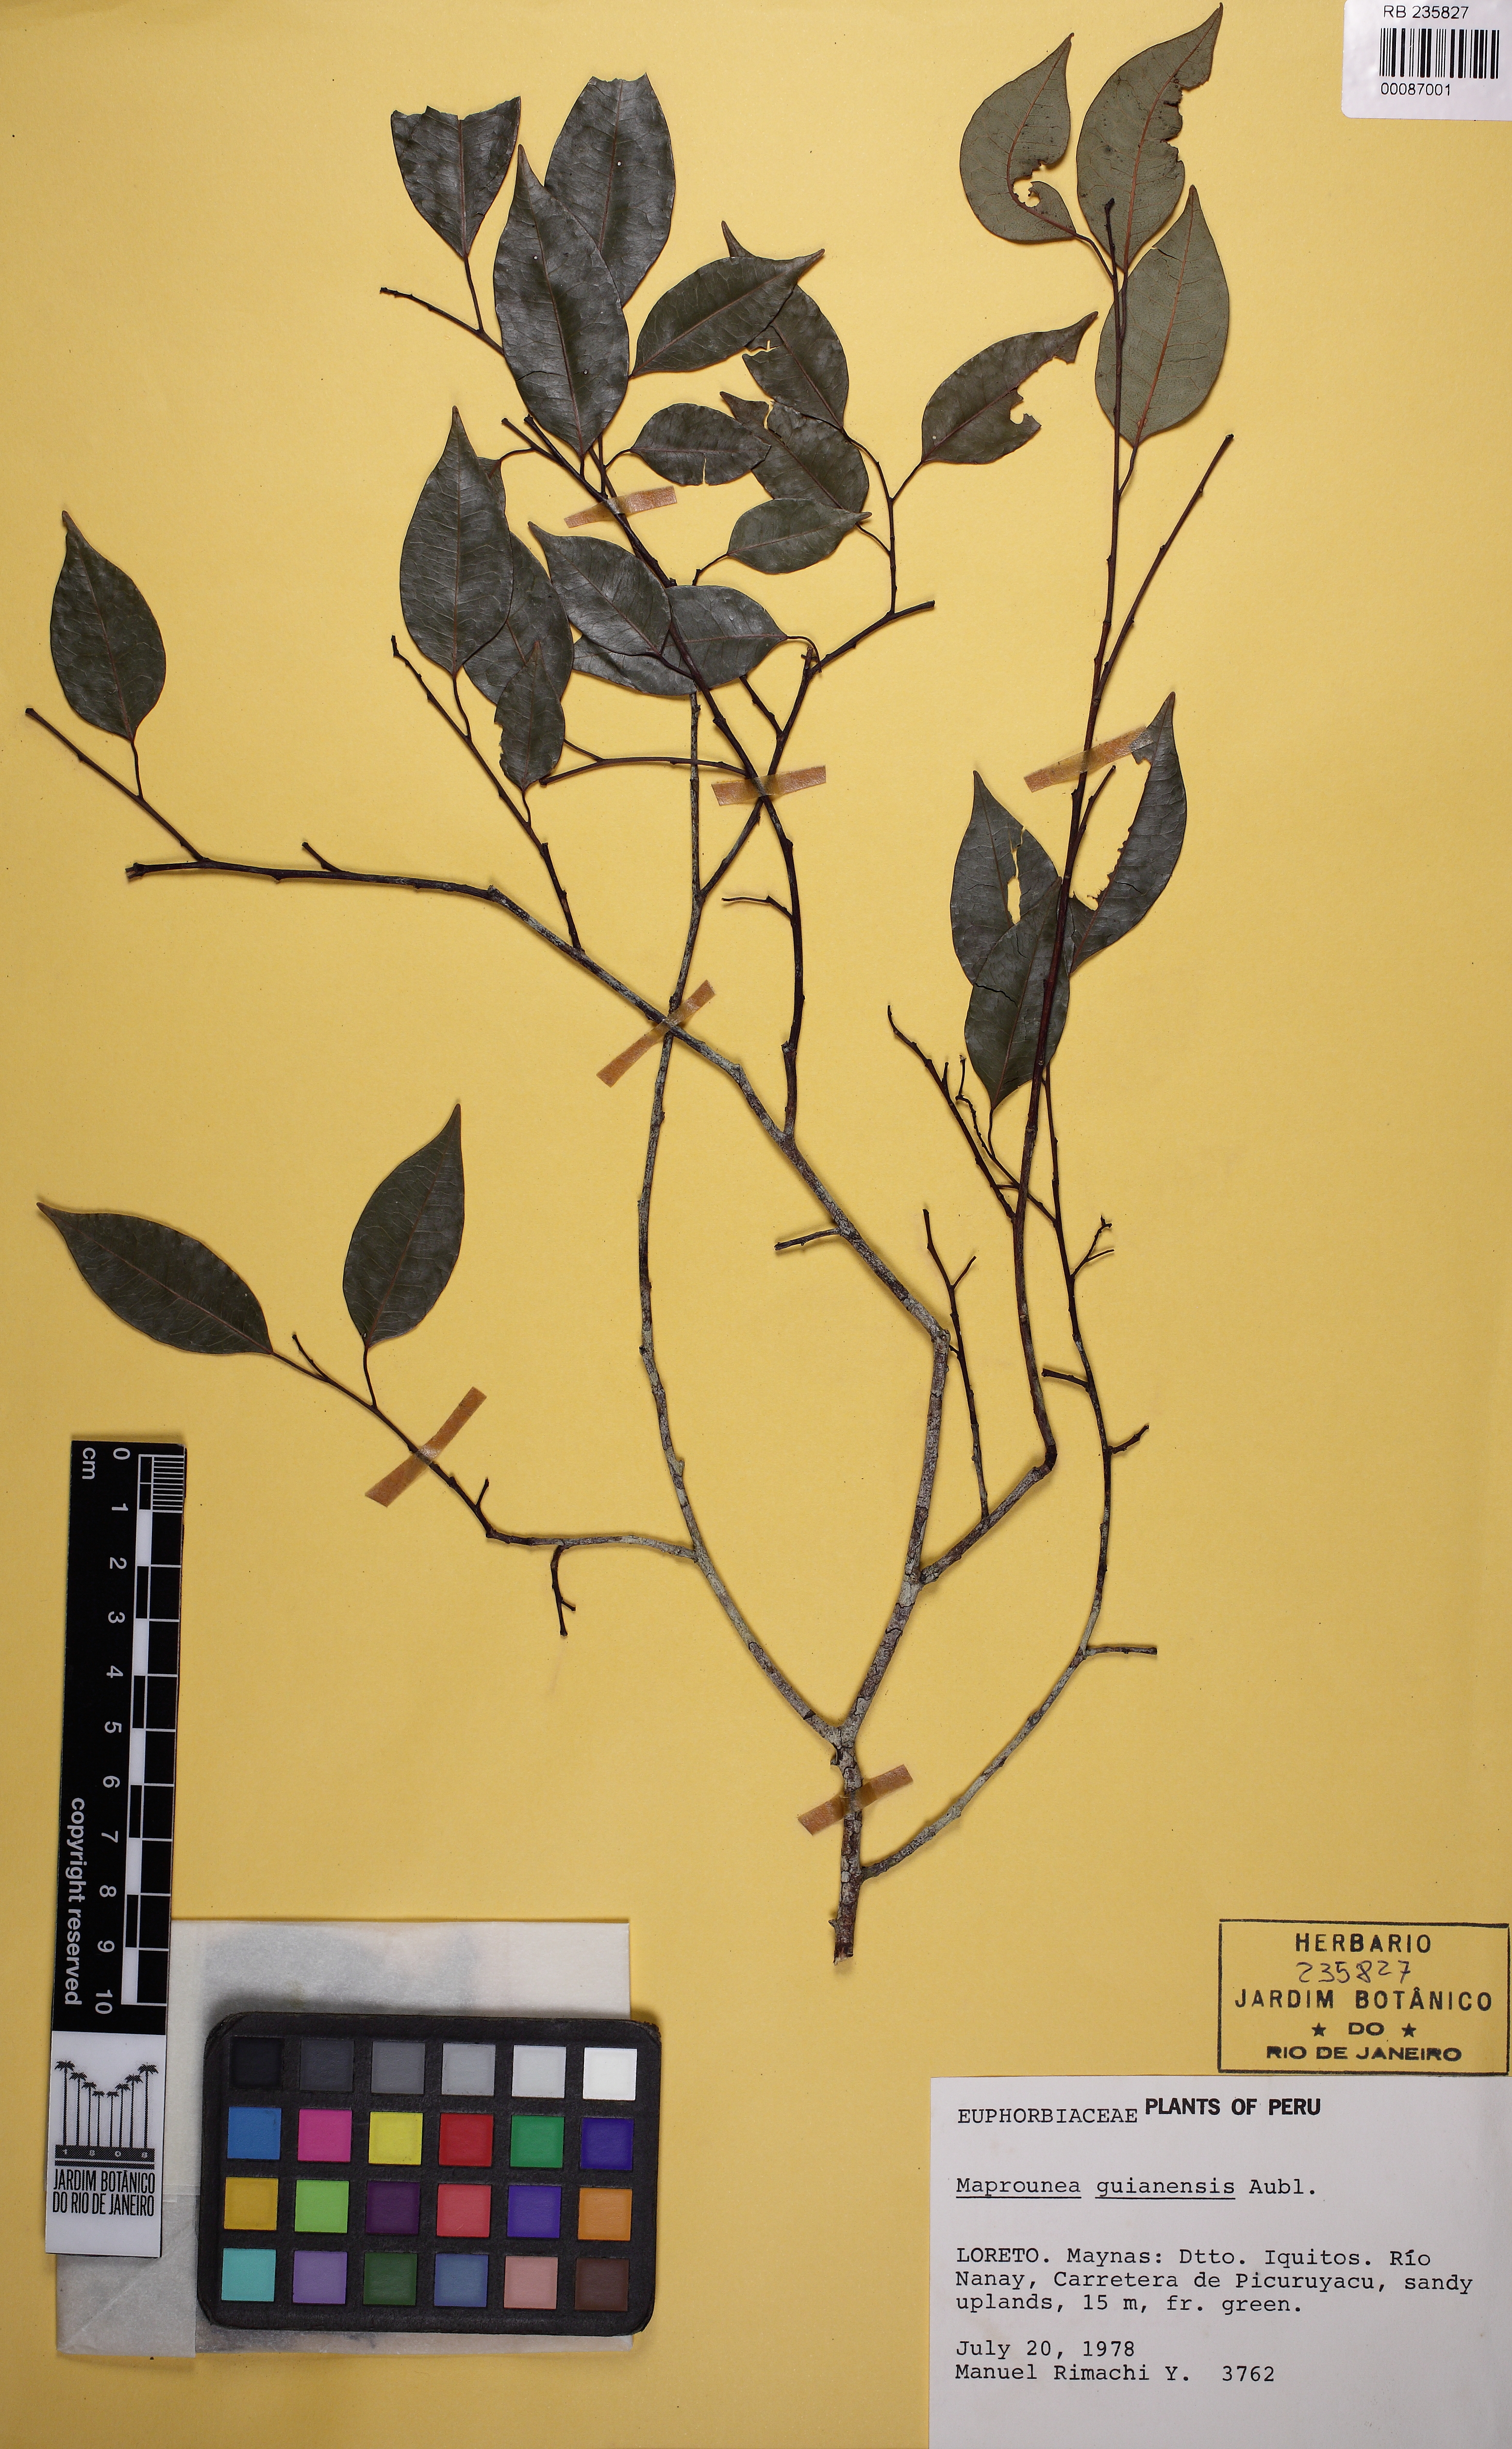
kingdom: Plantae
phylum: Tracheophyta
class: Magnoliopsida
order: Malpighiales
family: Euphorbiaceae
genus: Maprounea
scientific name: Maprounea africana
